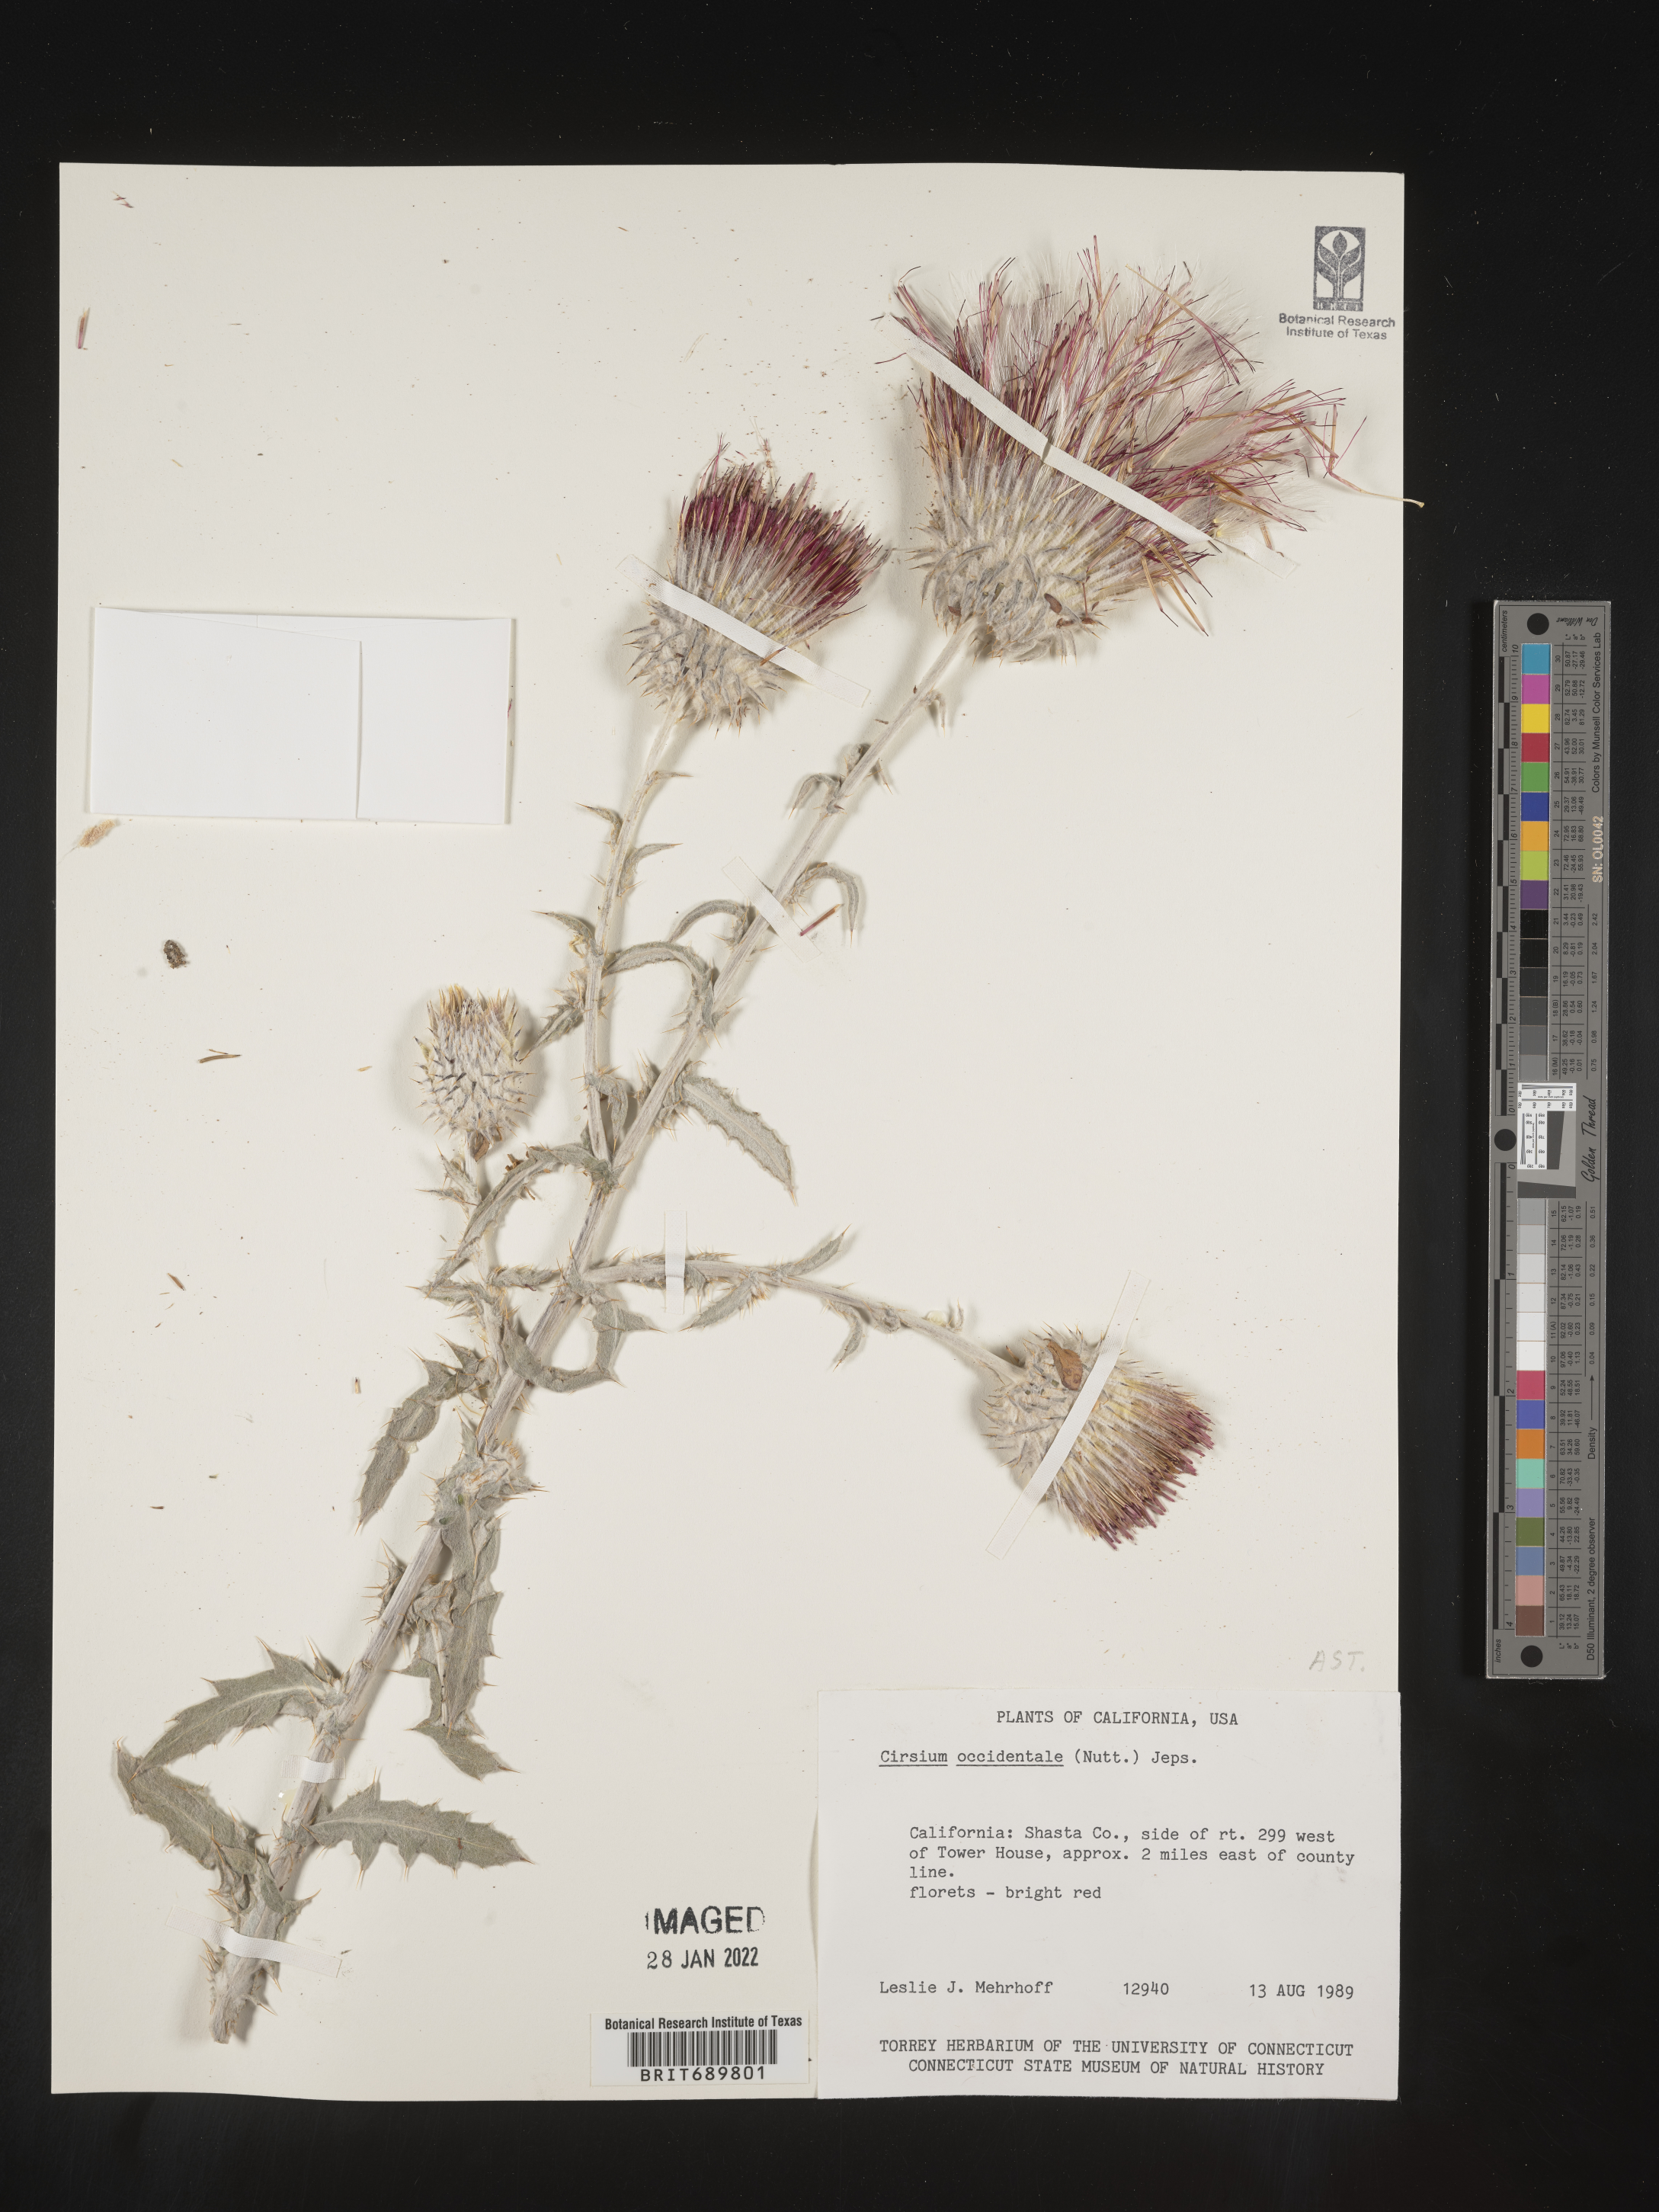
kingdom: Plantae
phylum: Tracheophyta
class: Magnoliopsida
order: Asterales
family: Asteraceae
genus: Cirsium
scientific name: Cirsium occidentale
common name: Western thistle
